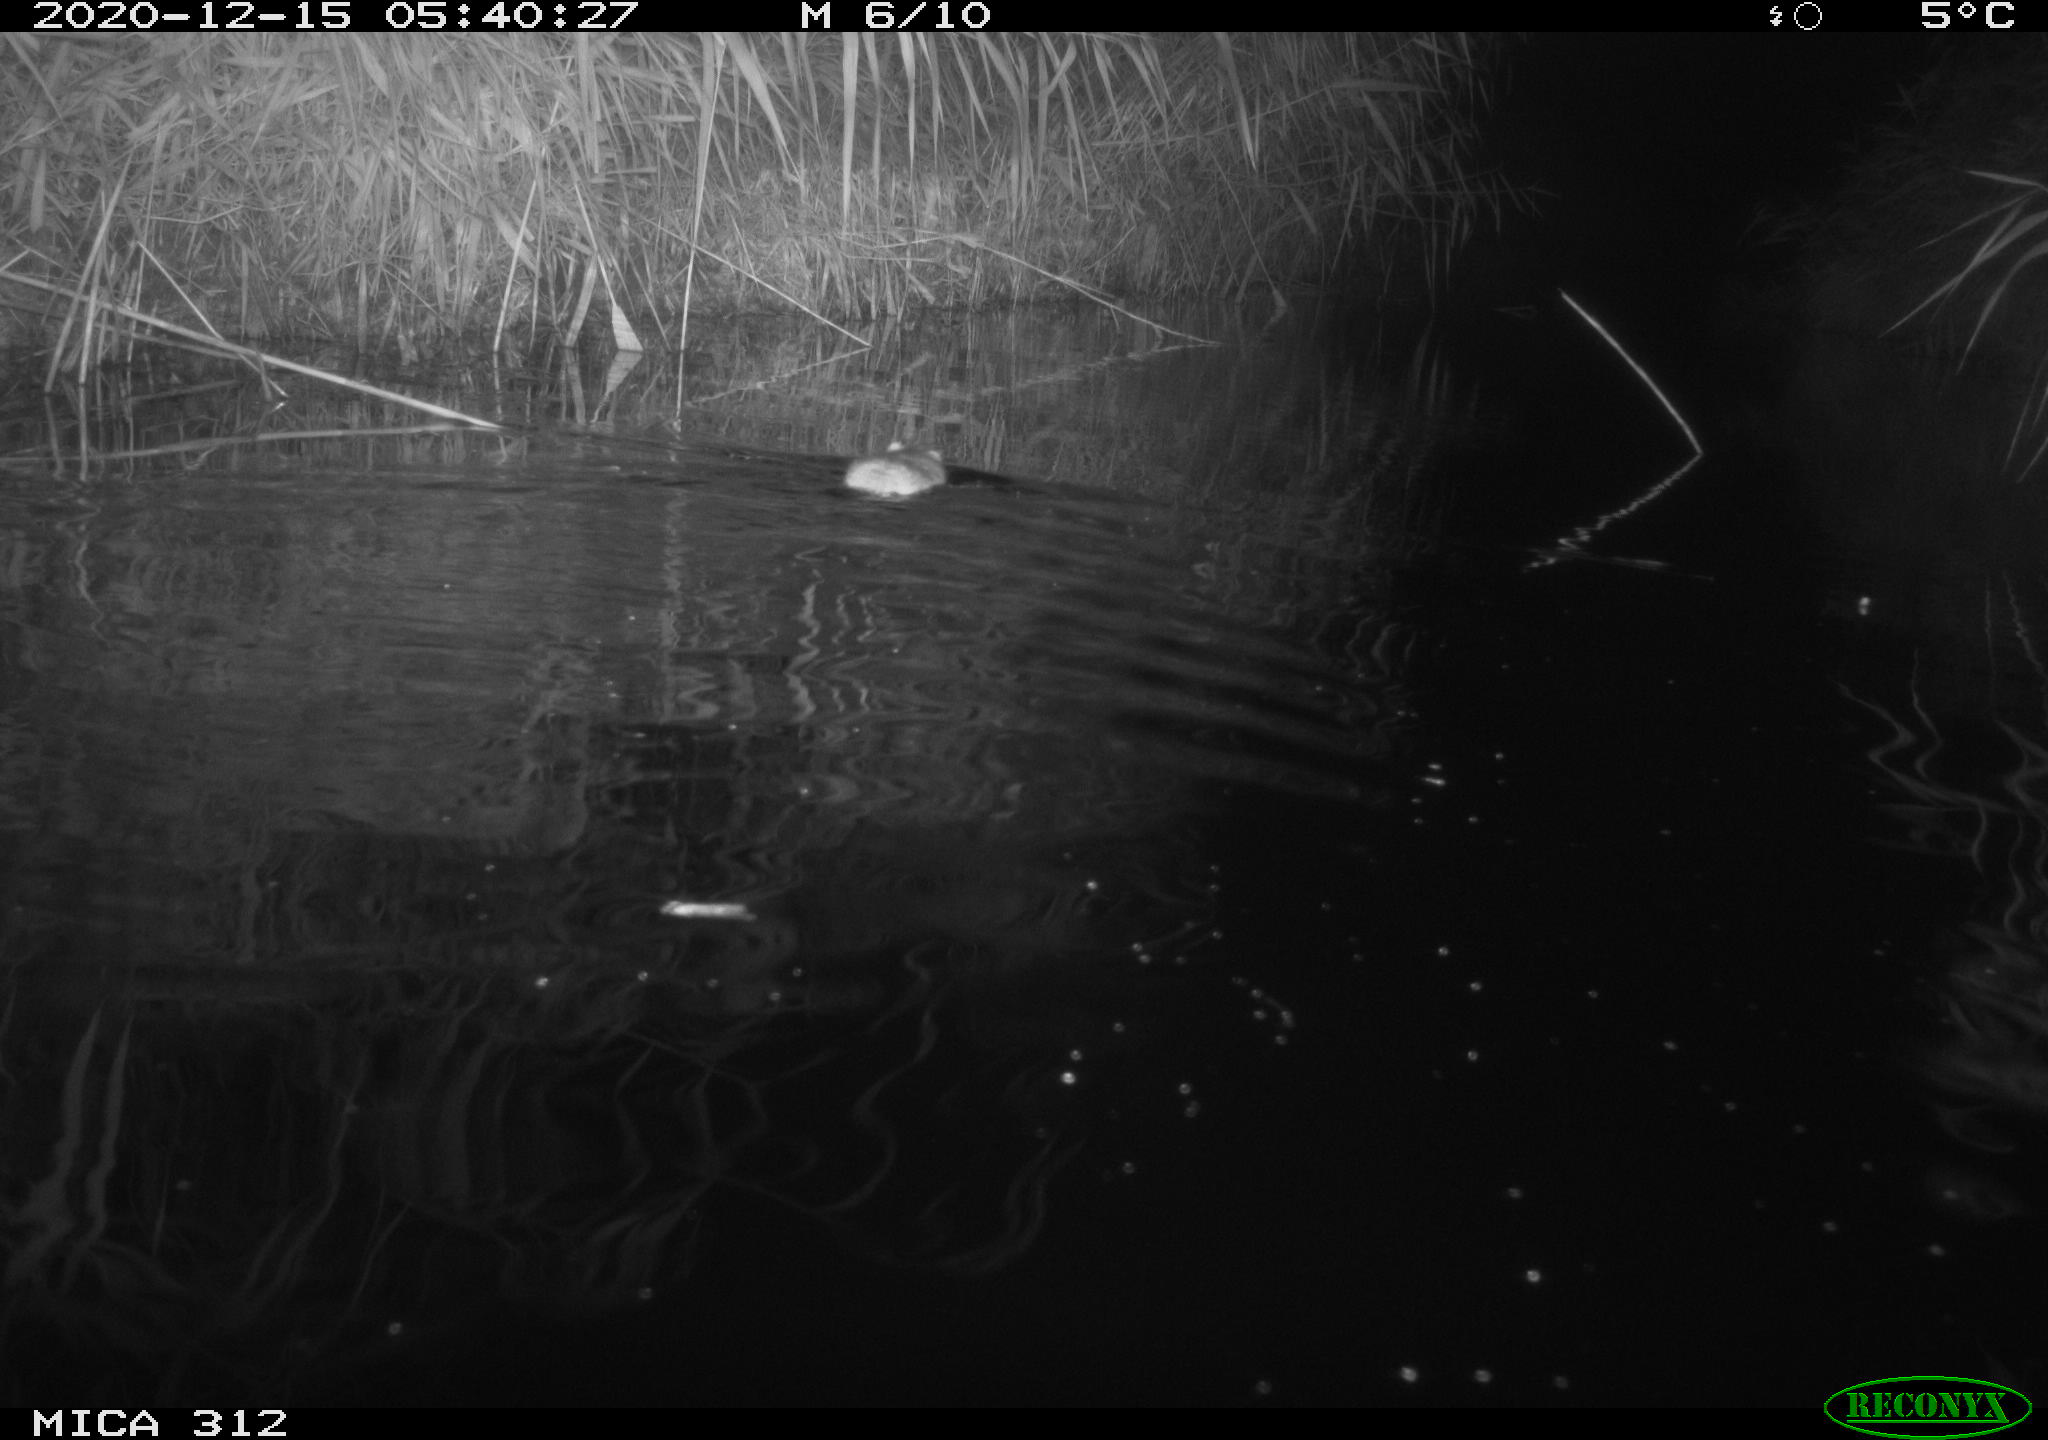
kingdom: Animalia
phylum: Chordata
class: Mammalia
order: Rodentia
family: Muridae
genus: Rattus
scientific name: Rattus norvegicus
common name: Brown rat
